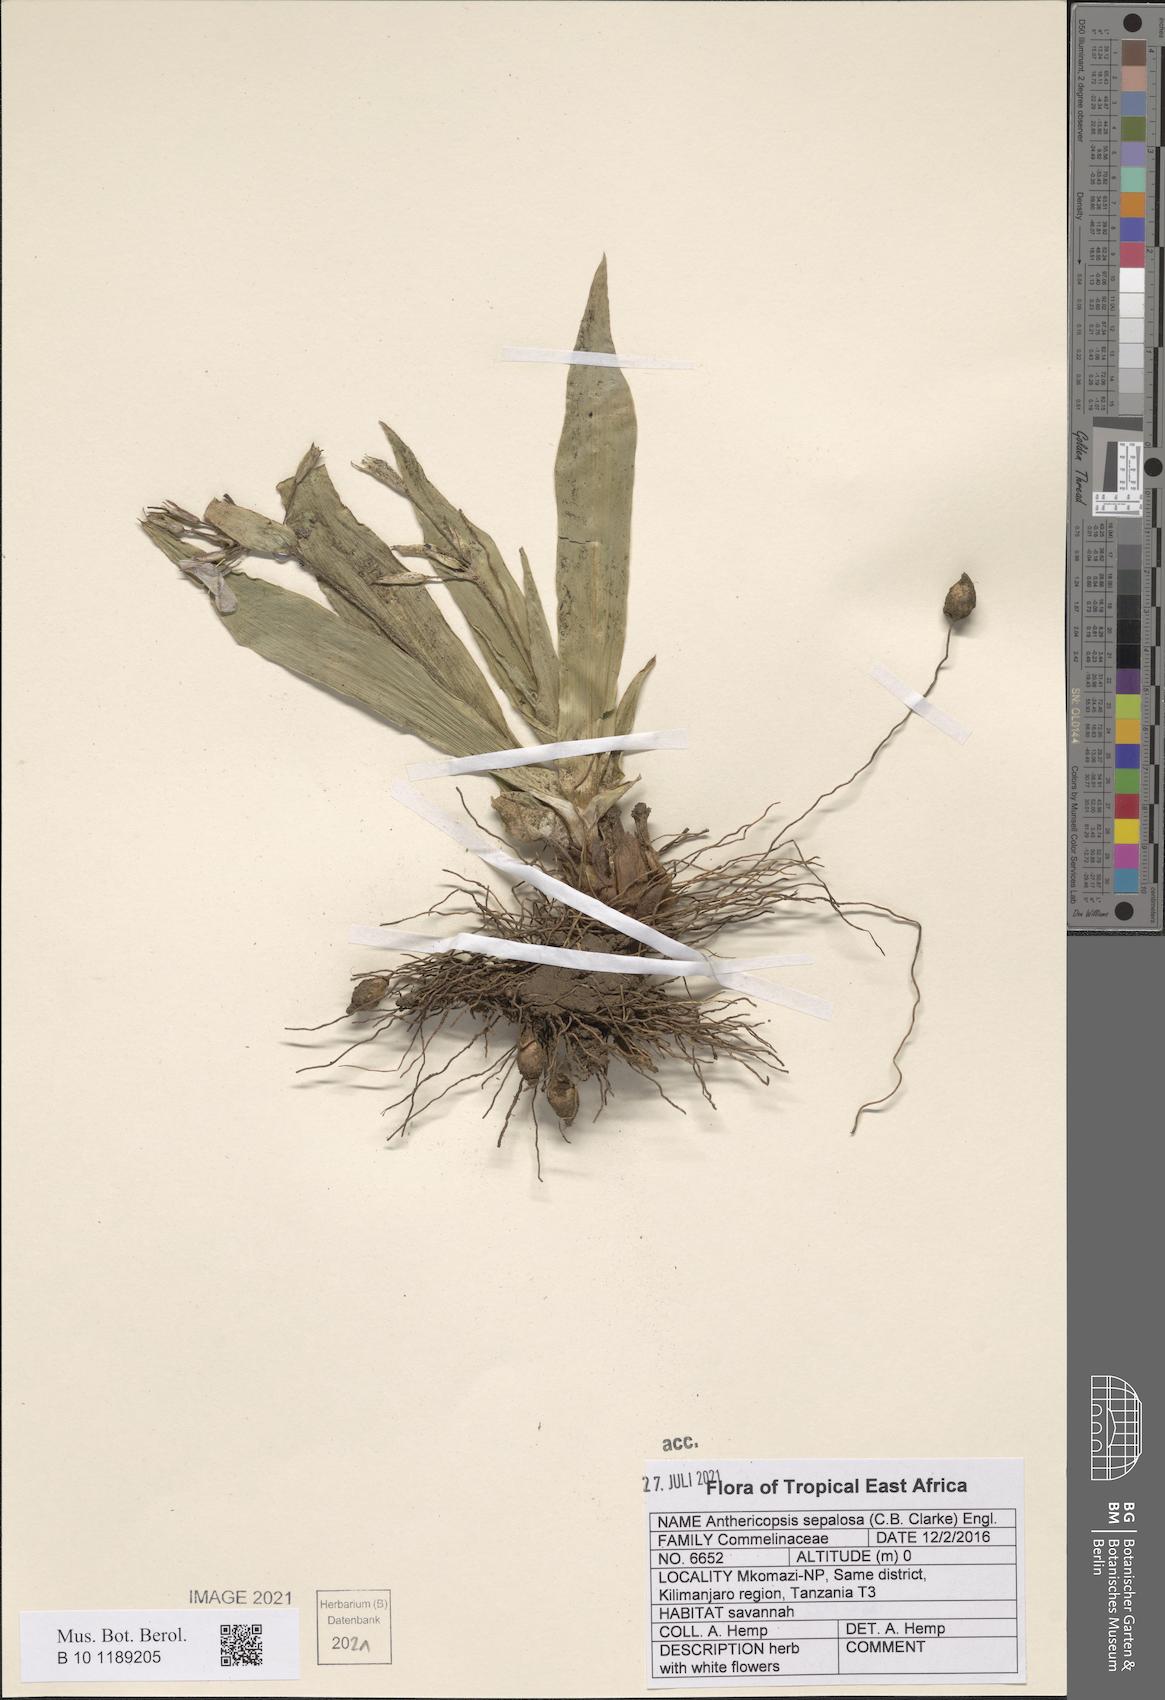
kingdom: Plantae
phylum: Tracheophyta
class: Liliopsida
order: Commelinales
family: Commelinaceae
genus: Anthericopsis
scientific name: Anthericopsis sepalosa
